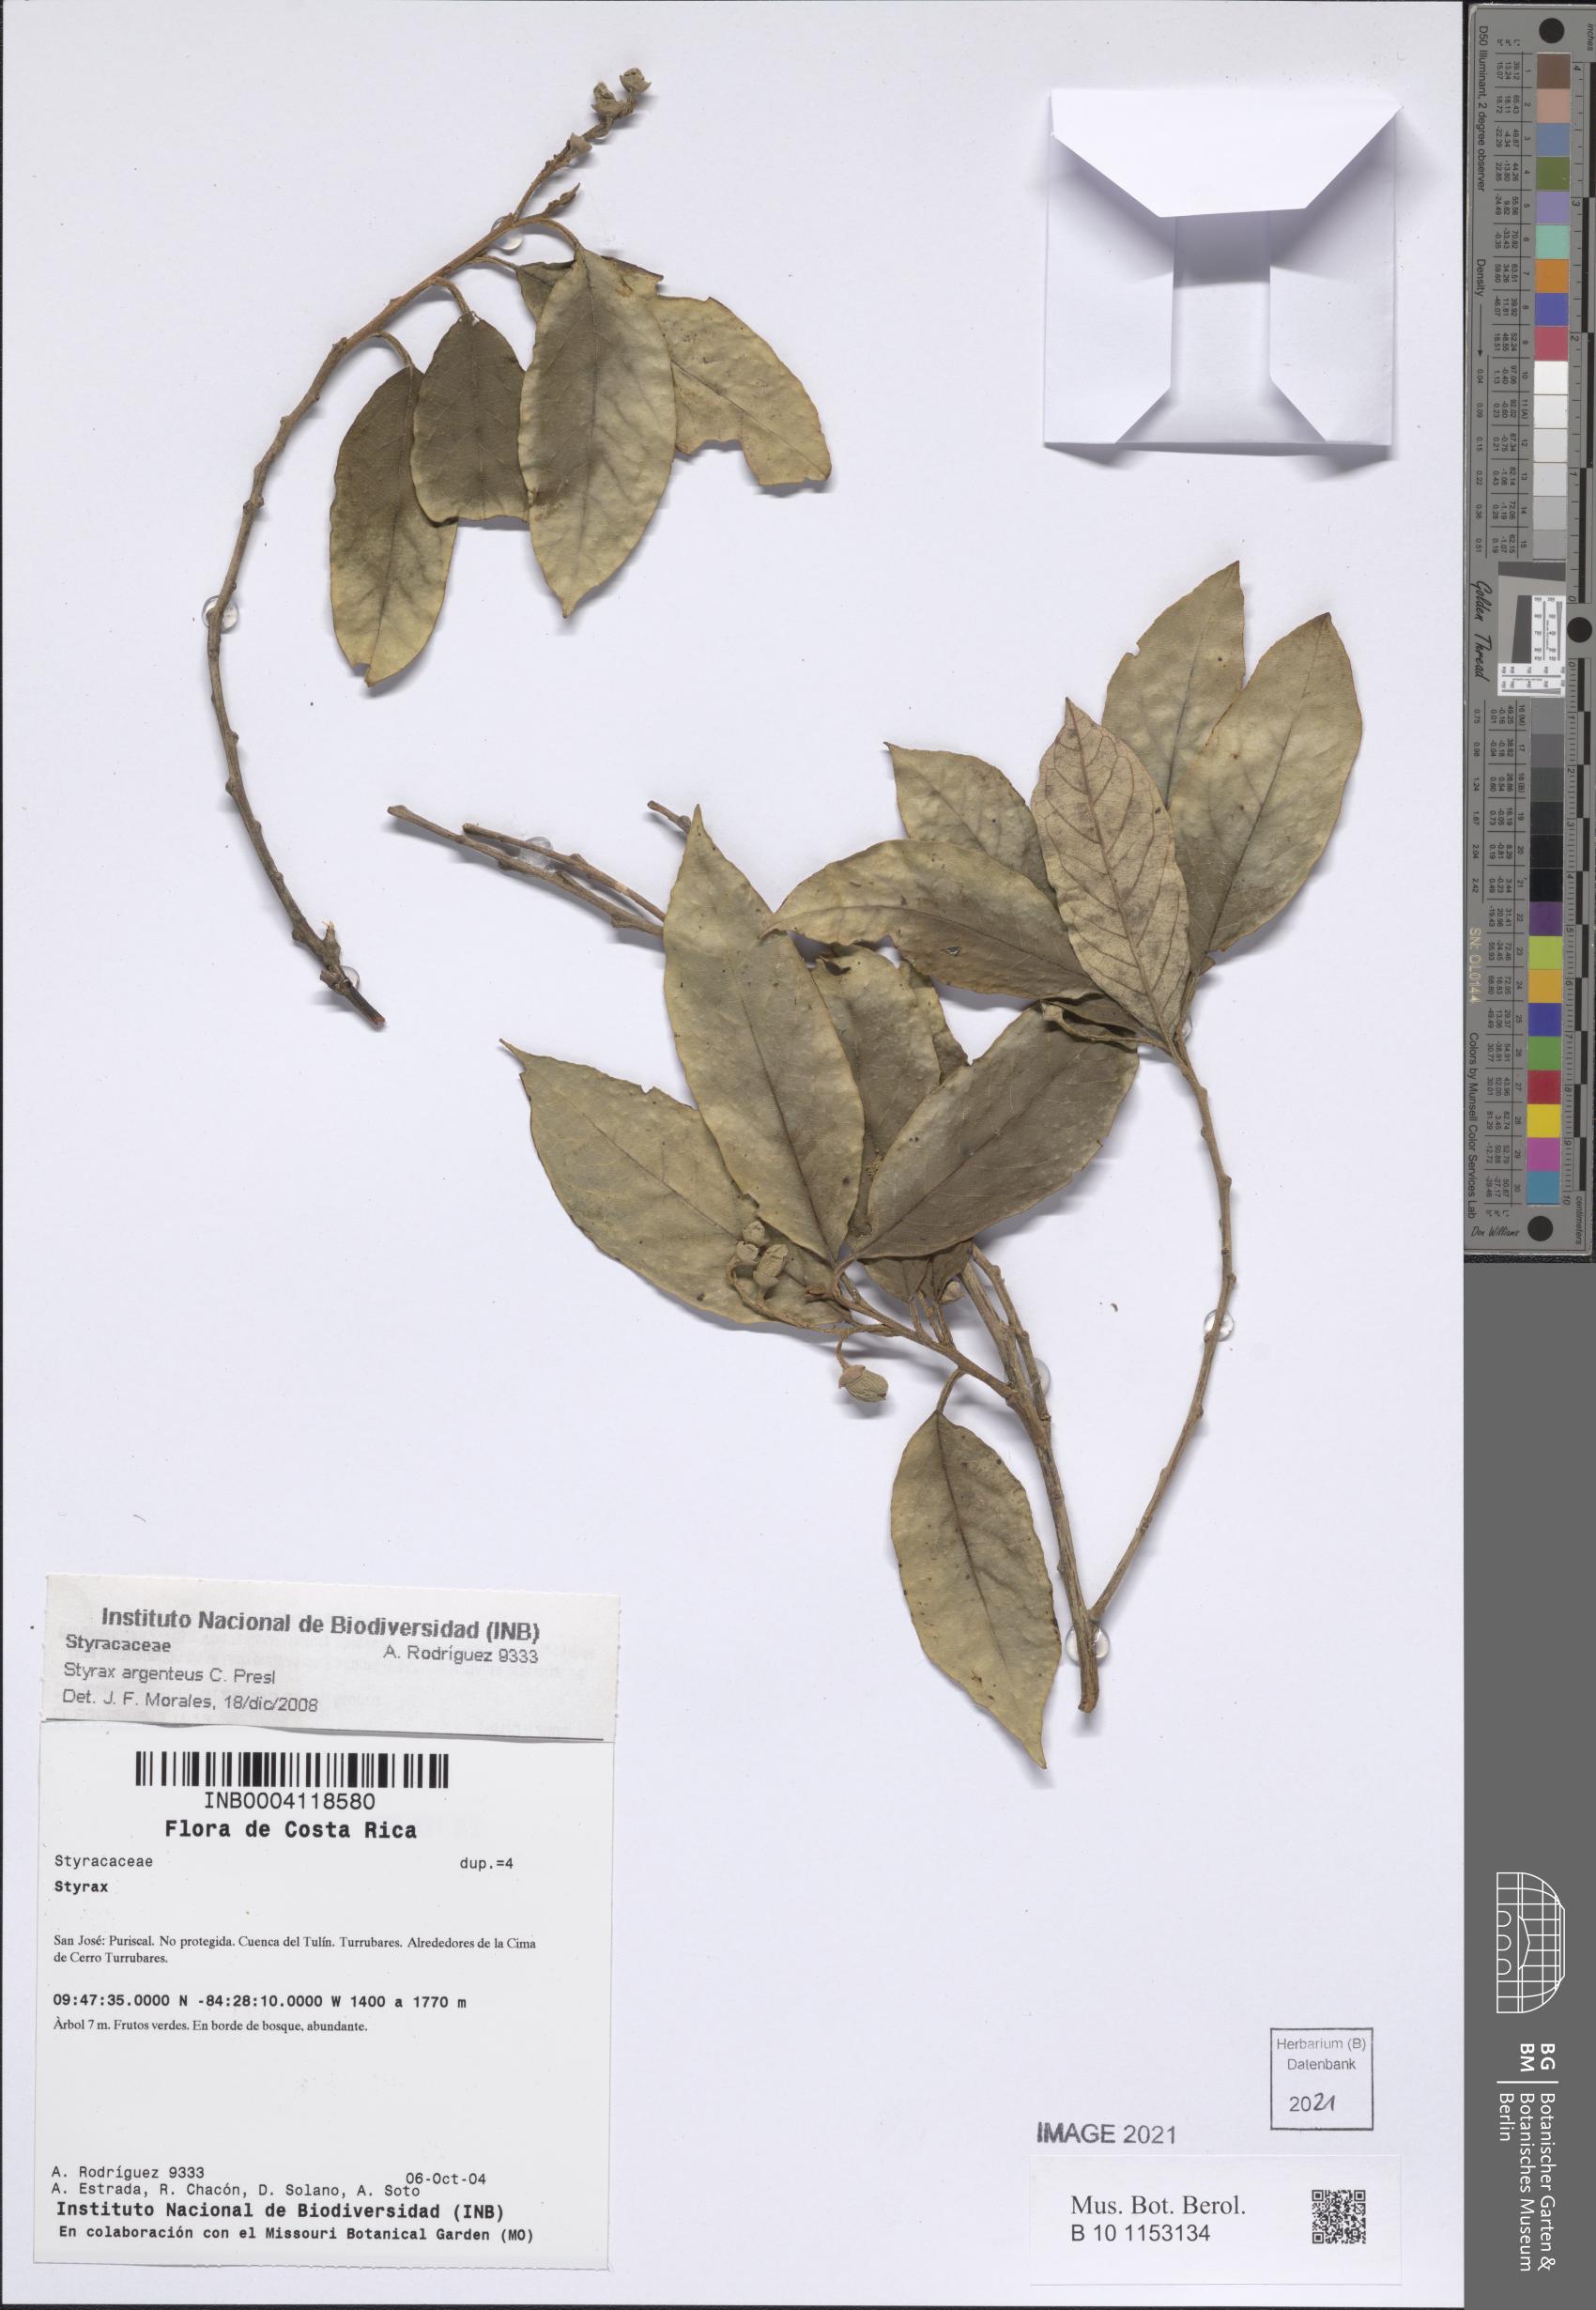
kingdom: Plantae
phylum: Tracheophyta
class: Magnoliopsida
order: Ericales
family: Styracaceae
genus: Styrax
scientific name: Styrax warscewiczii
